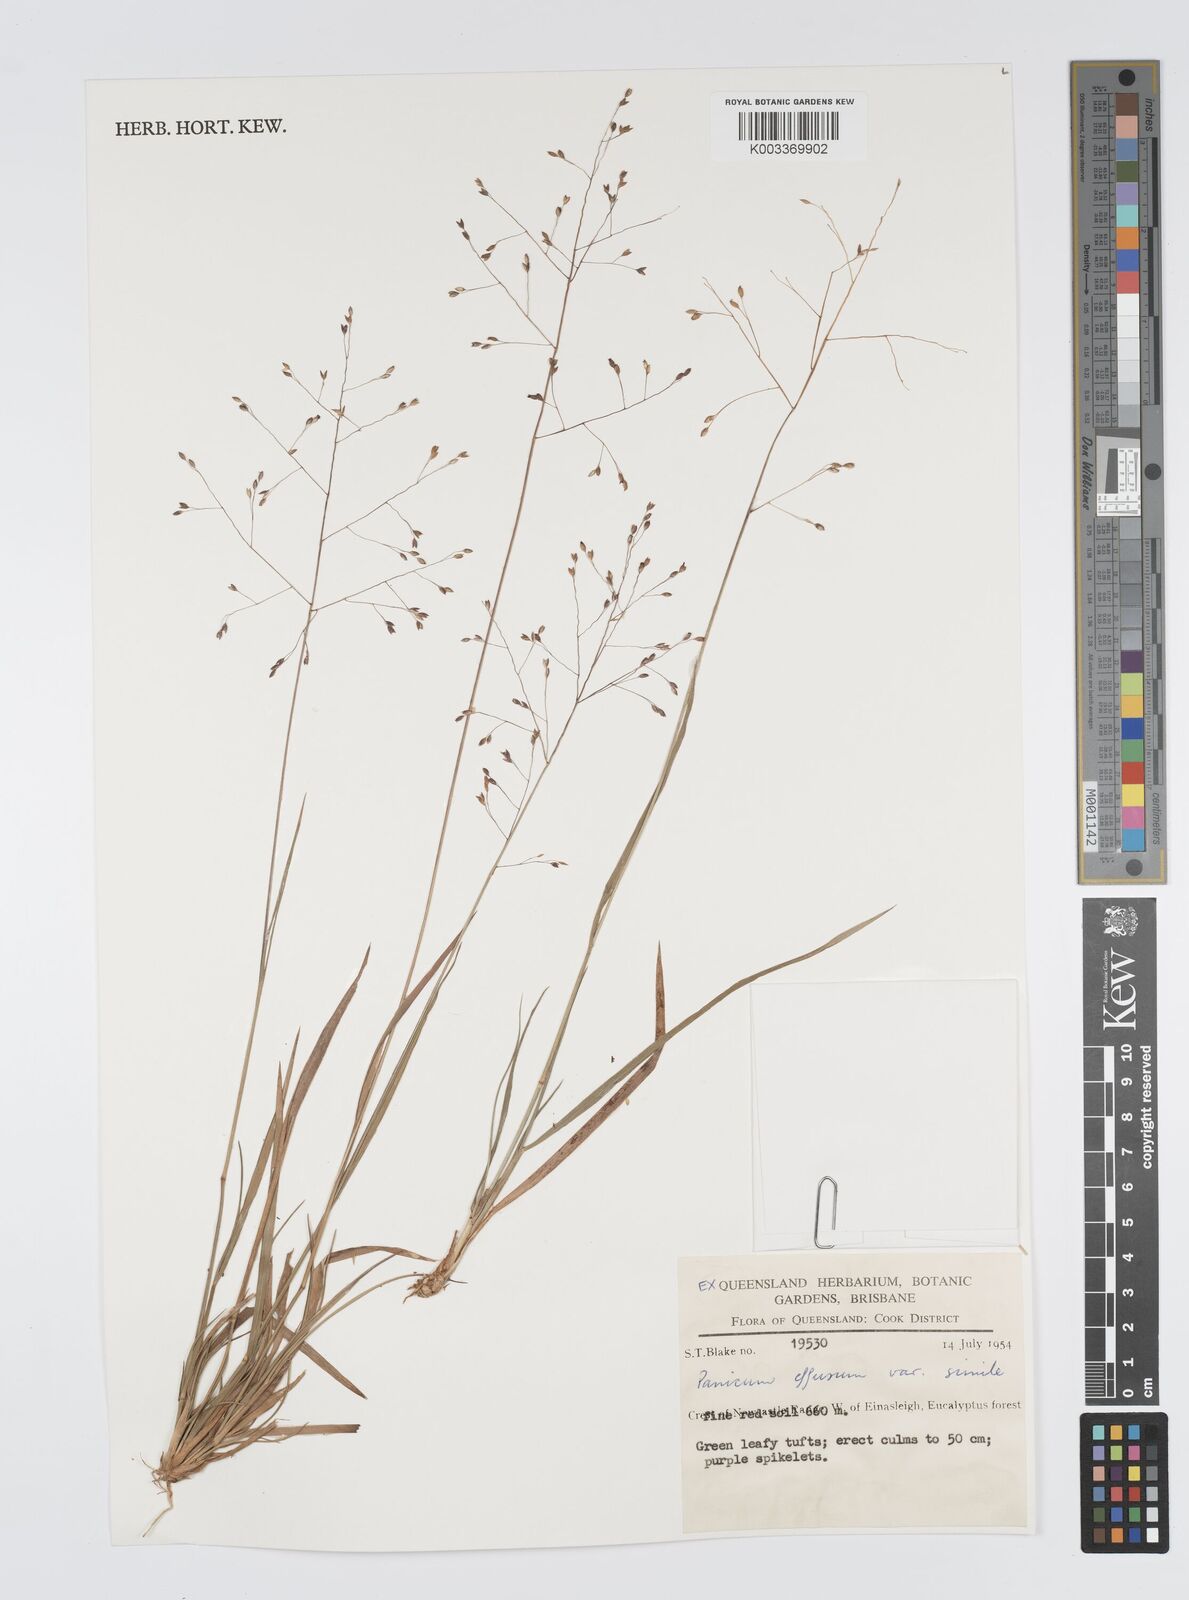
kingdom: Plantae
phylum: Tracheophyta
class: Liliopsida
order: Poales
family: Poaceae
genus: Panicum
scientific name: Panicum effusum
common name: Hairy panic grass
